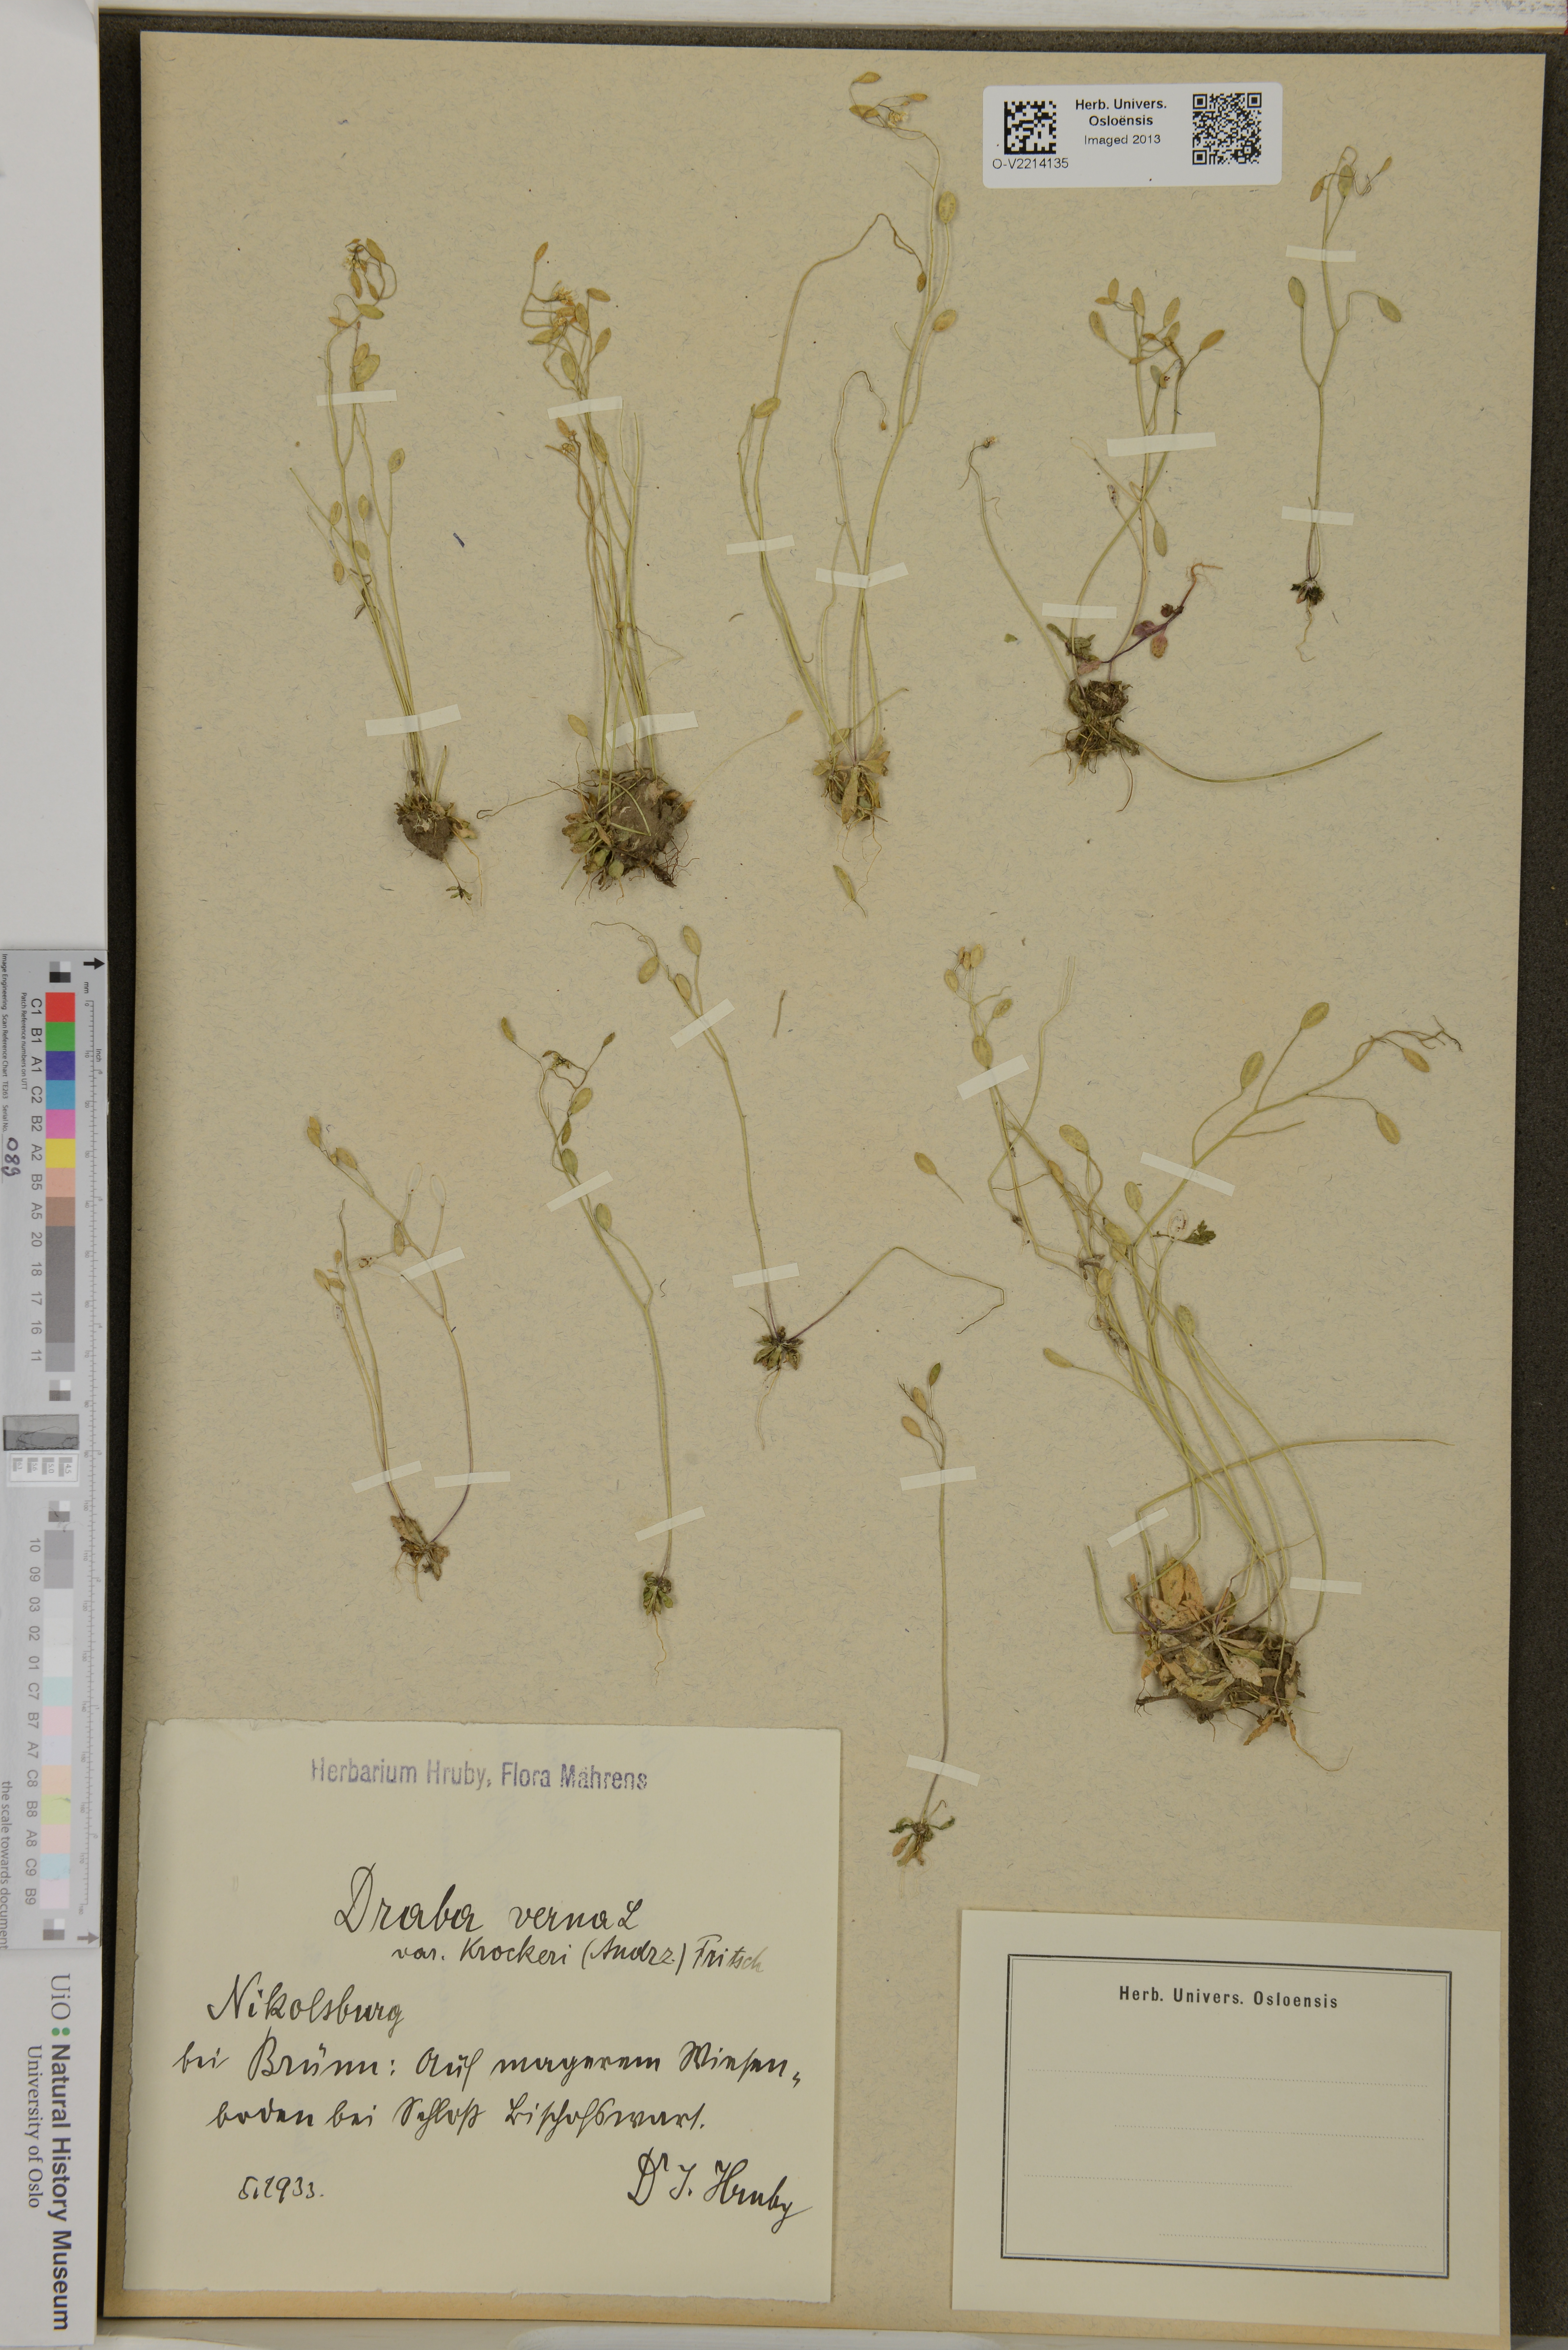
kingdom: Plantae
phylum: Tracheophyta
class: Magnoliopsida
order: Brassicales
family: Brassicaceae
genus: Draba
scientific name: Draba verna
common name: Spring draba
